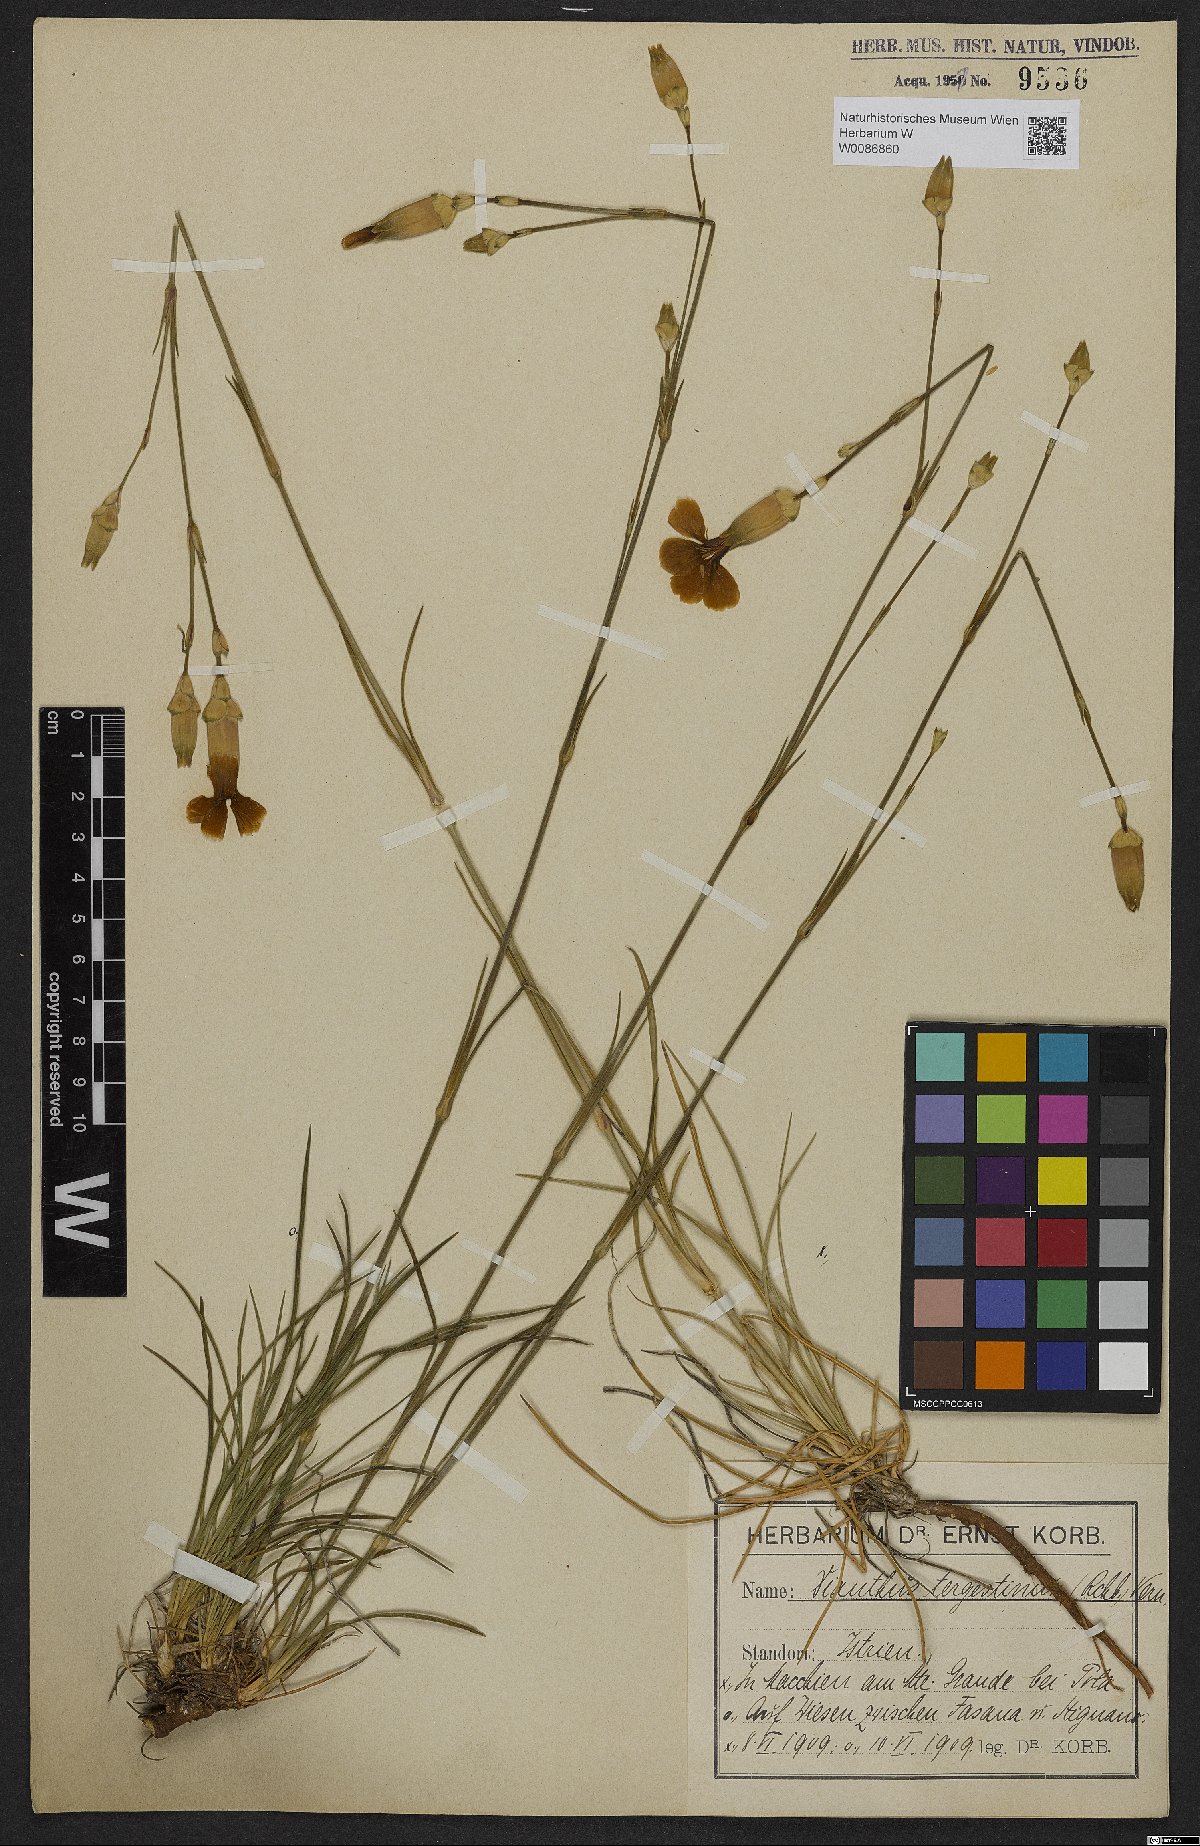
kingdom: Plantae
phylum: Tracheophyta
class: Magnoliopsida
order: Caryophyllales
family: Caryophyllaceae
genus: Dianthus
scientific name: Dianthus sylvestris
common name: Wood pink
